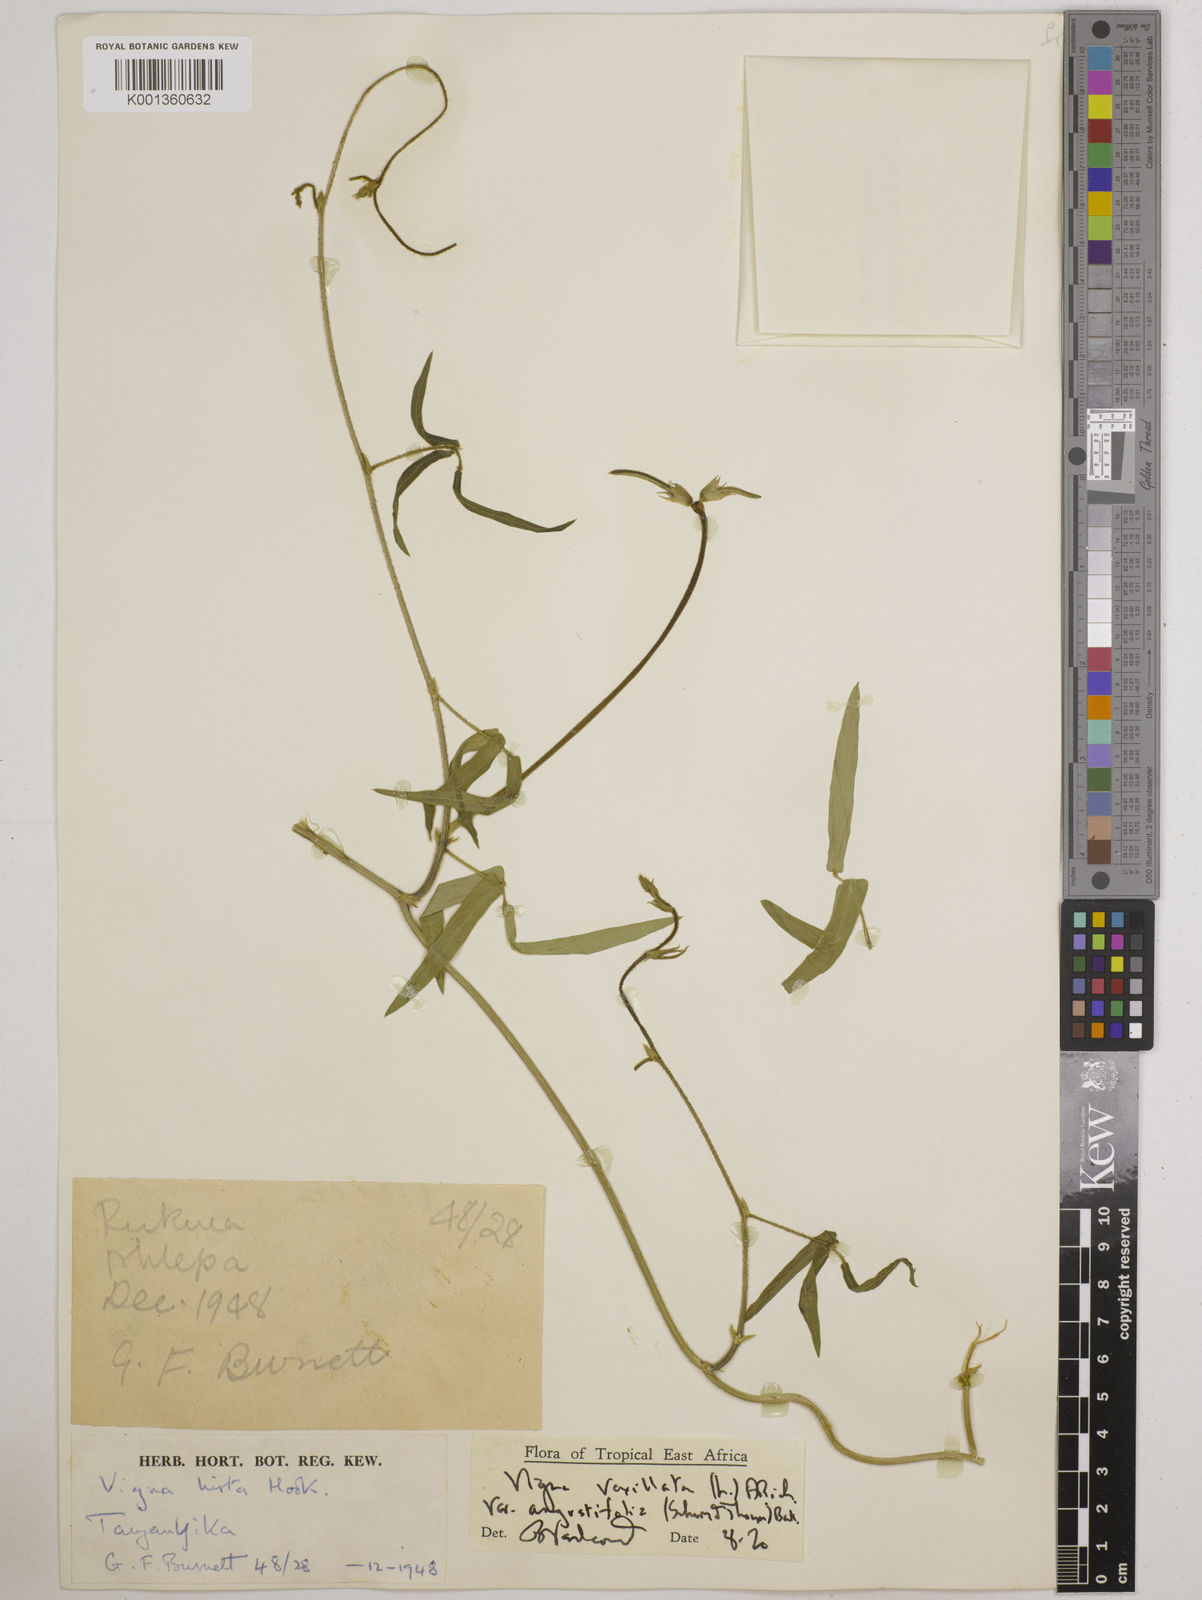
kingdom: Plantae
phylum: Tracheophyta
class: Magnoliopsida
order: Fabales
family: Fabaceae
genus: Vigna
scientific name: Vigna vexillata
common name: Zombi pea
